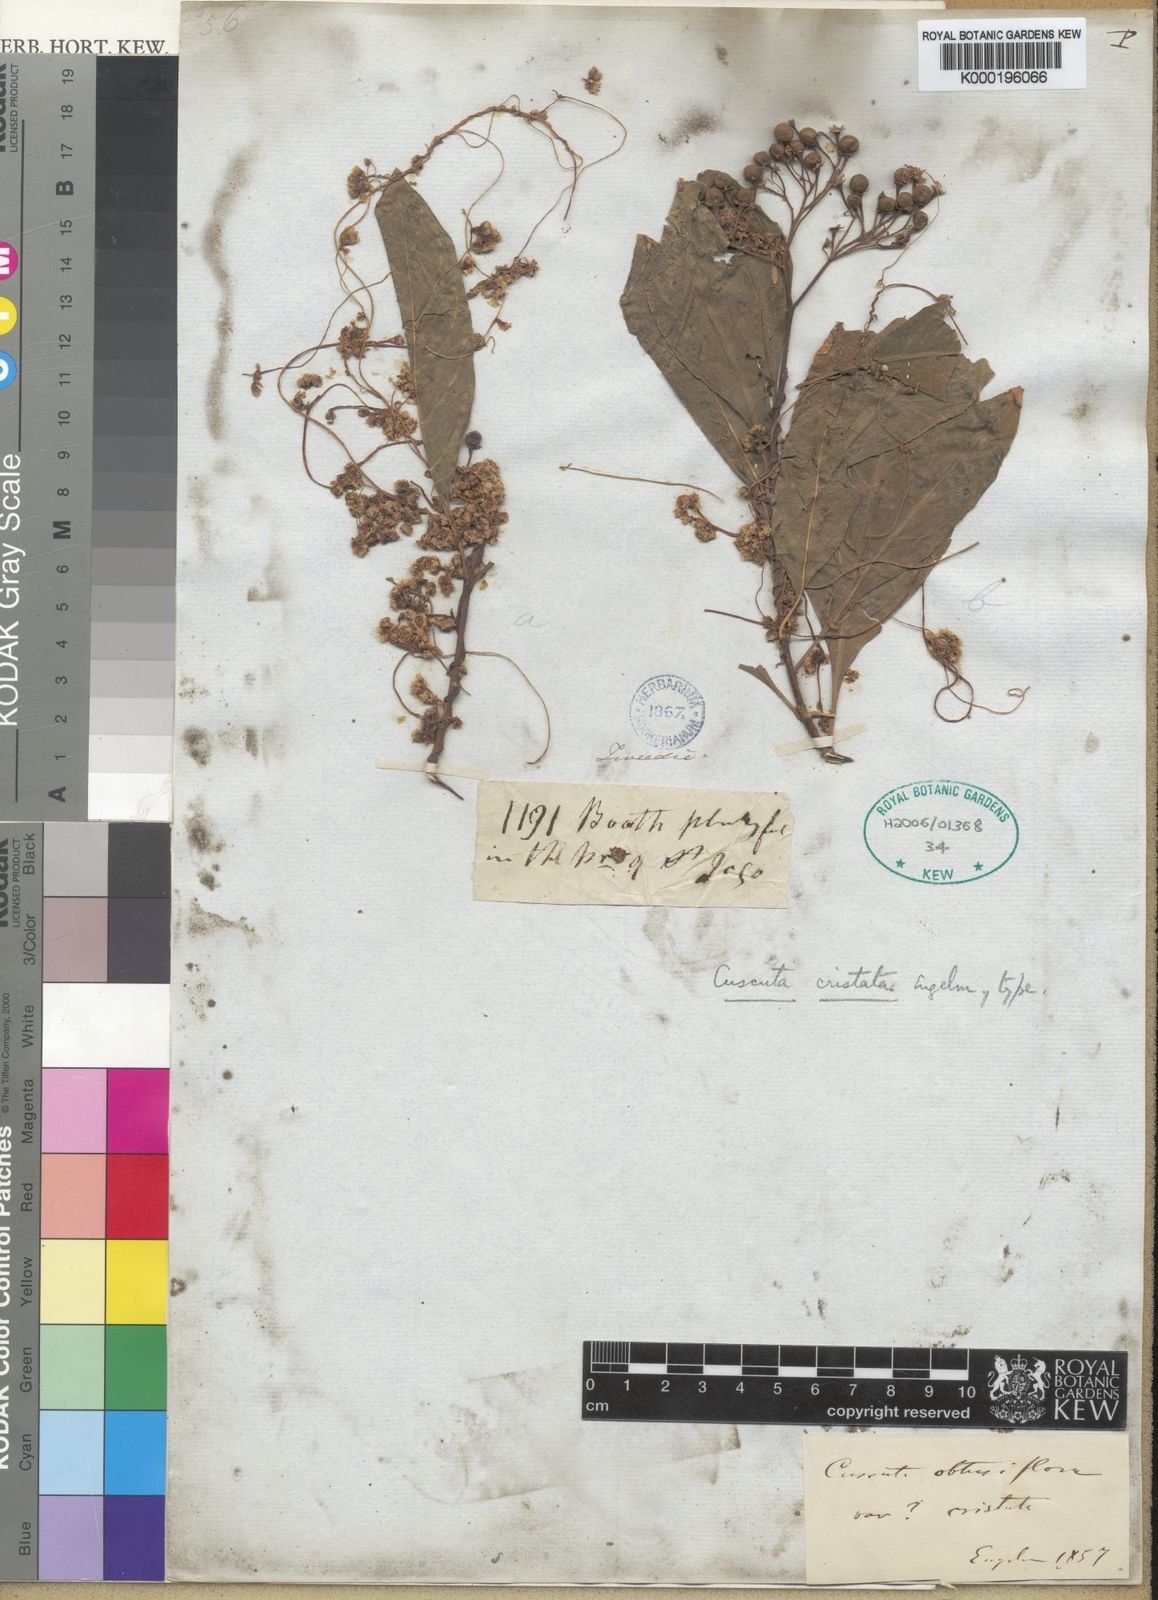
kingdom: Plantae
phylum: Tracheophyta
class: Magnoliopsida
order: Solanales
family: Convolvulaceae
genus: Cuscuta
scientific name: Cuscuta cristata
